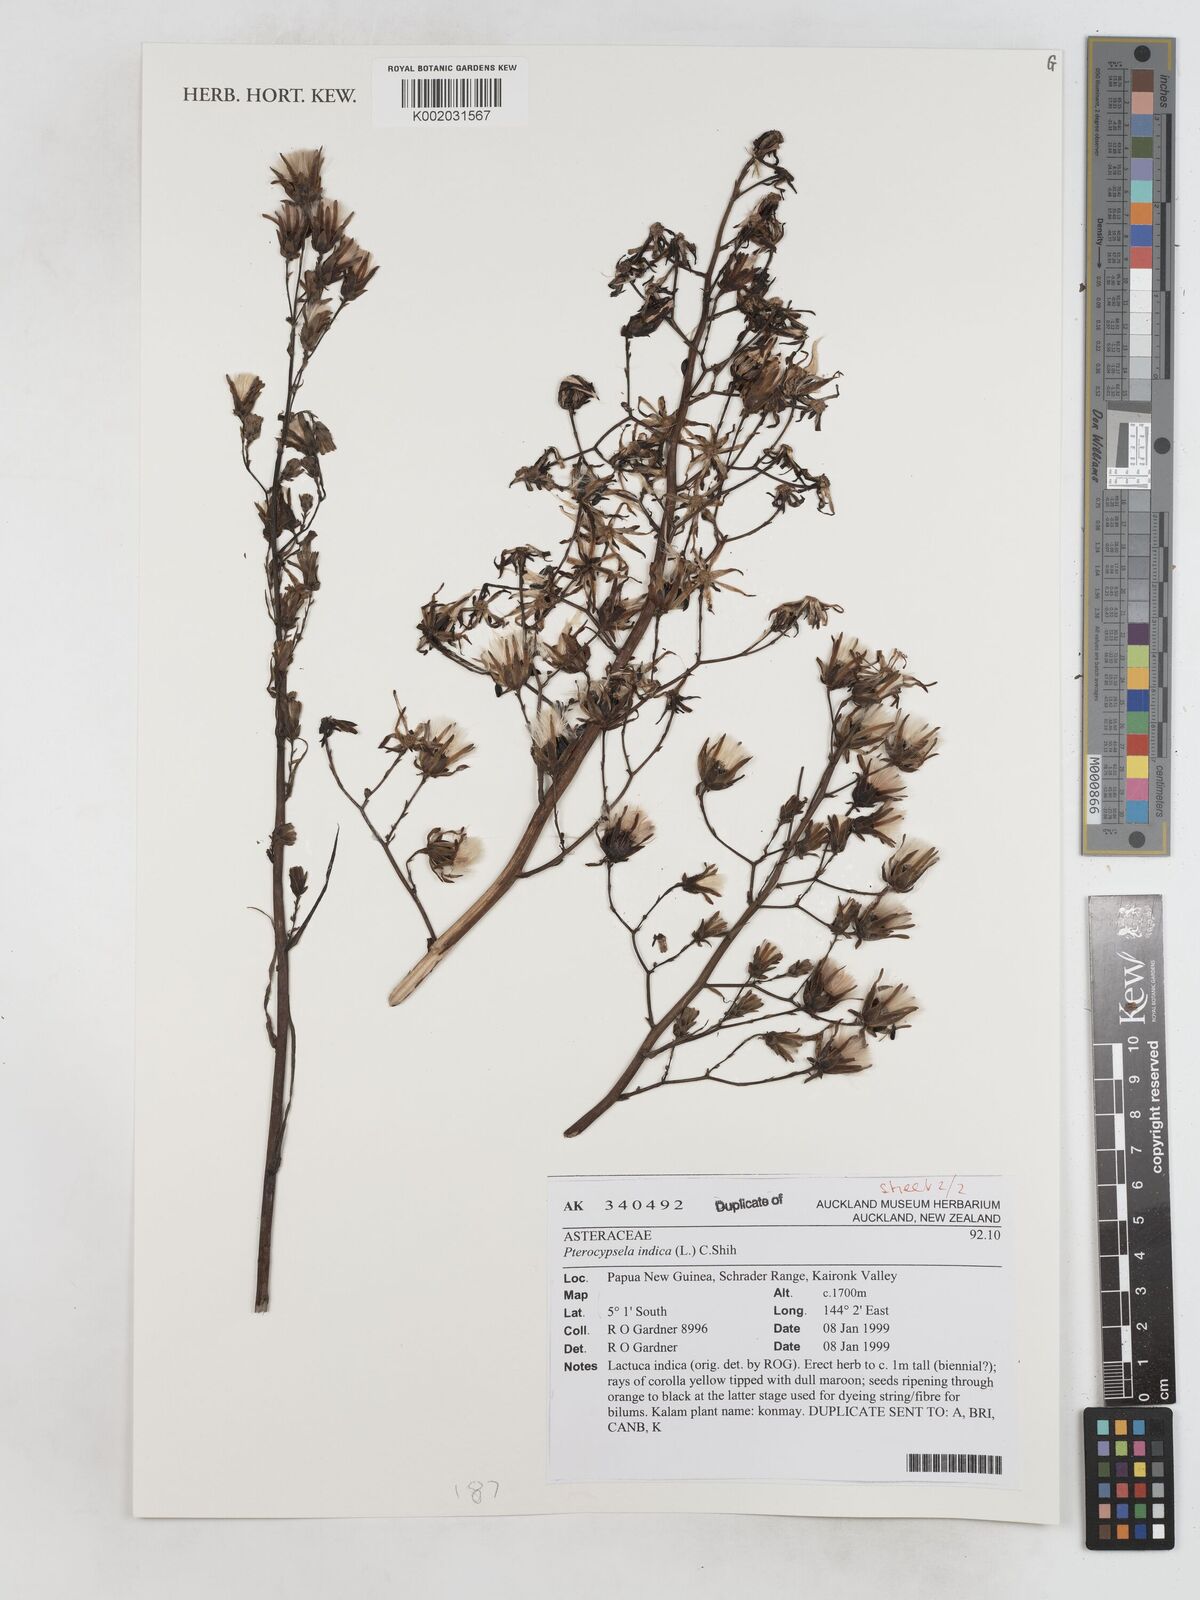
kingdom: Plantae
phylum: Tracheophyta
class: Magnoliopsida
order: Asterales
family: Asteraceae
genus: Lactuca
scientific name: Lactuca indica
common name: Wild lettuce
